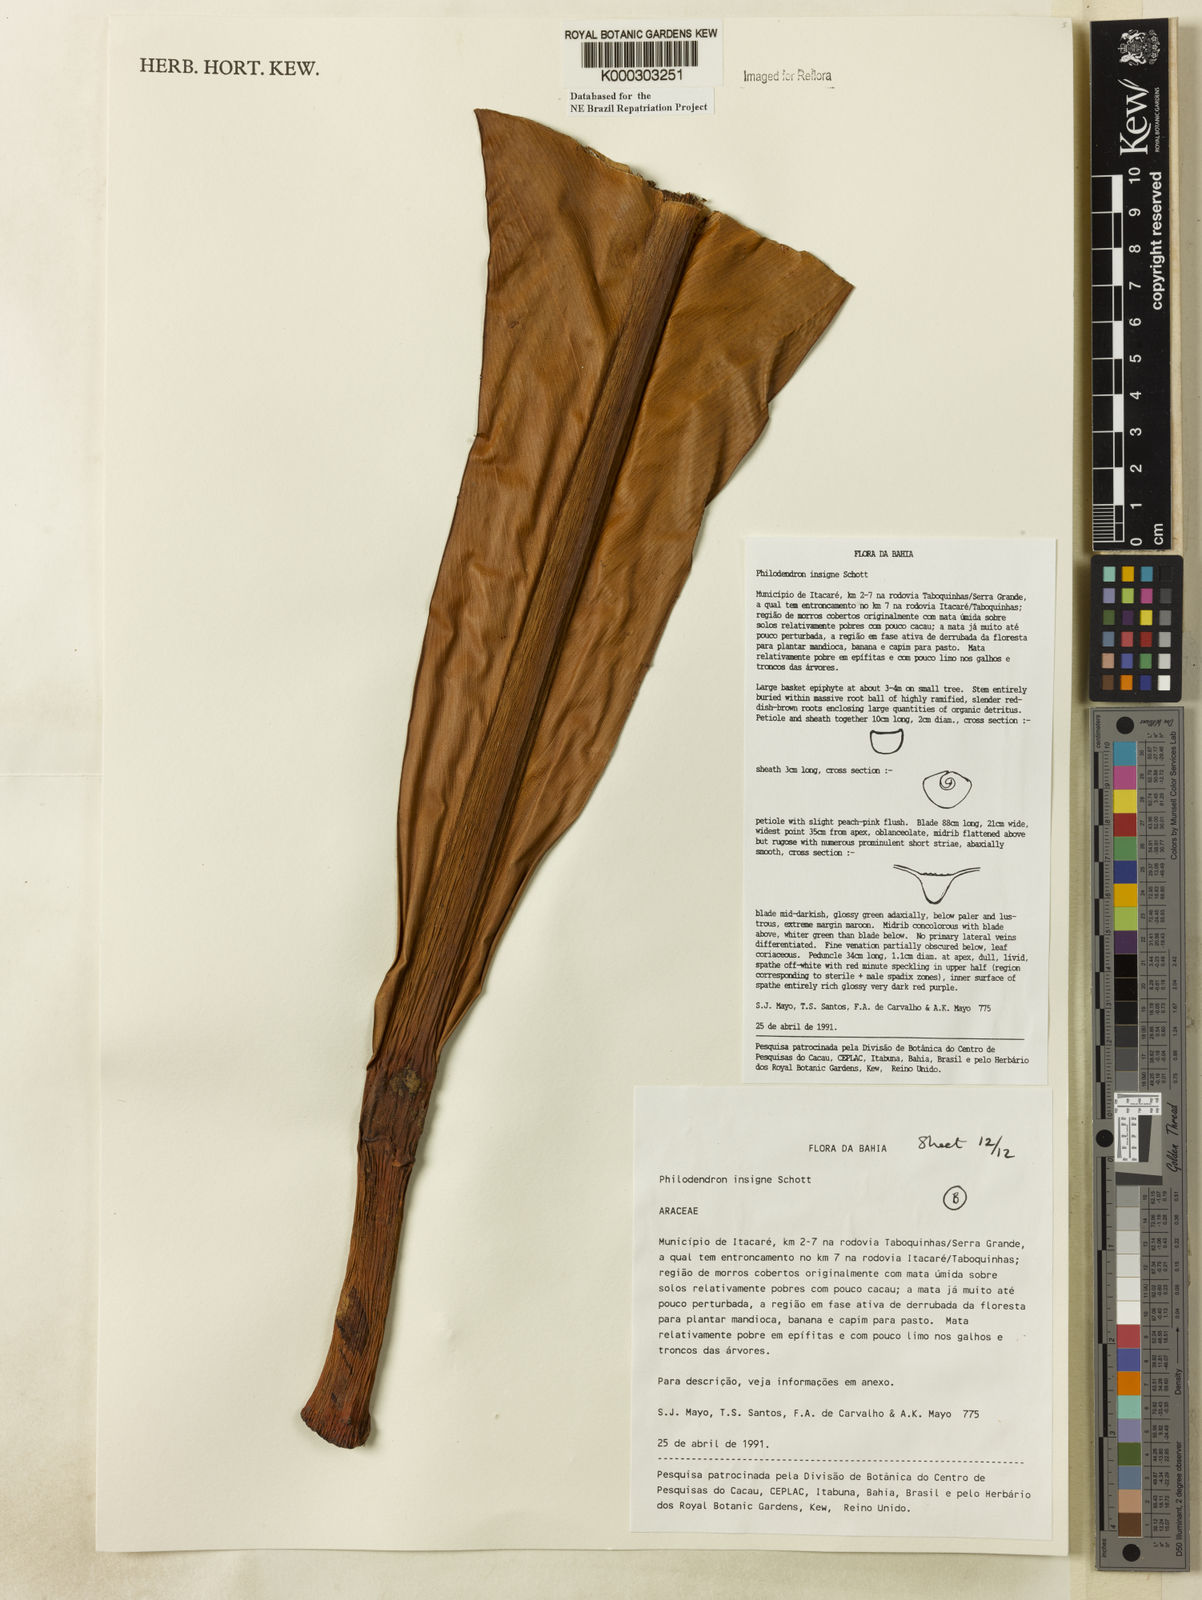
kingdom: Plantae
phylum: Tracheophyta
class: Liliopsida
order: Alismatales
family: Araceae
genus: Philodendron
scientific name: Philodendron insigne
